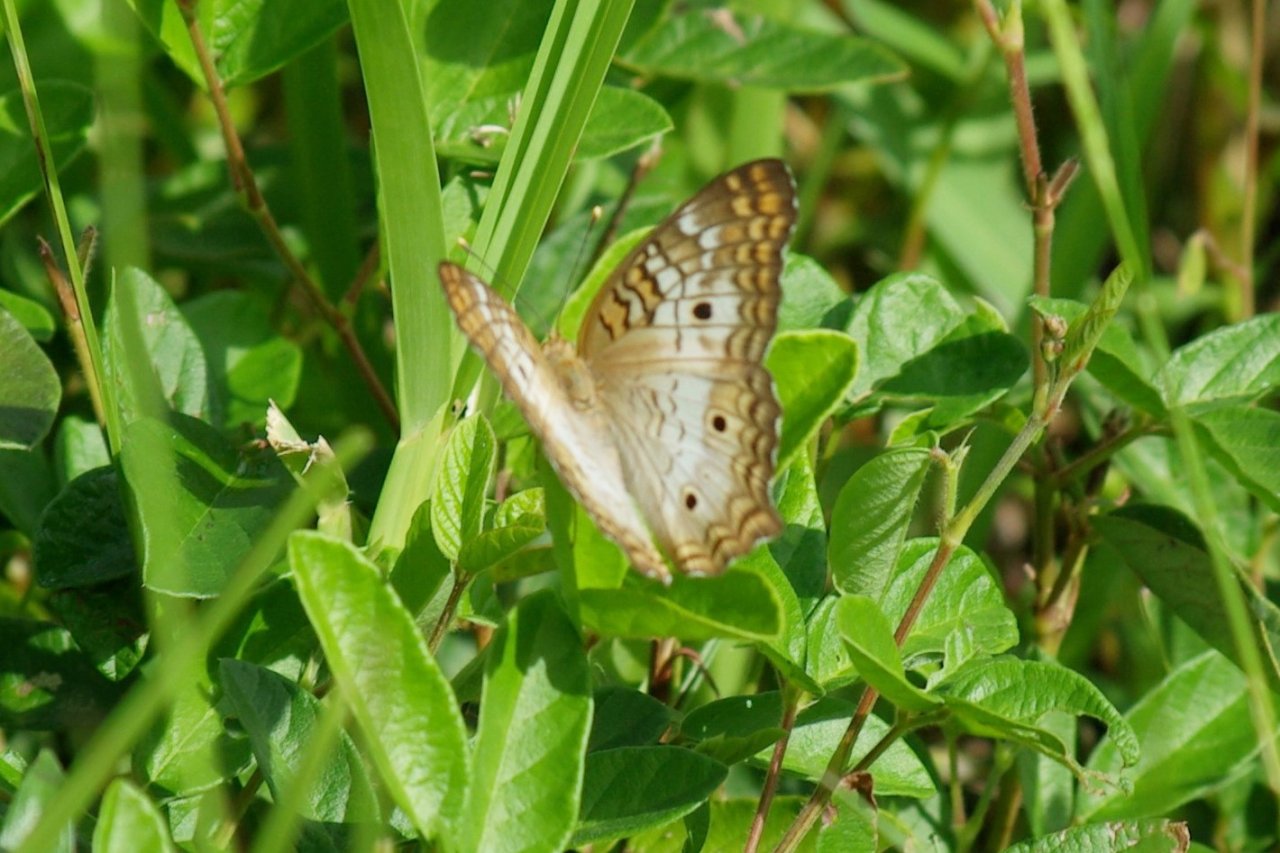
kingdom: Animalia
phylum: Arthropoda
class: Insecta
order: Lepidoptera
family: Nymphalidae
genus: Anartia
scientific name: Anartia jatrophae
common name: White Peacock
